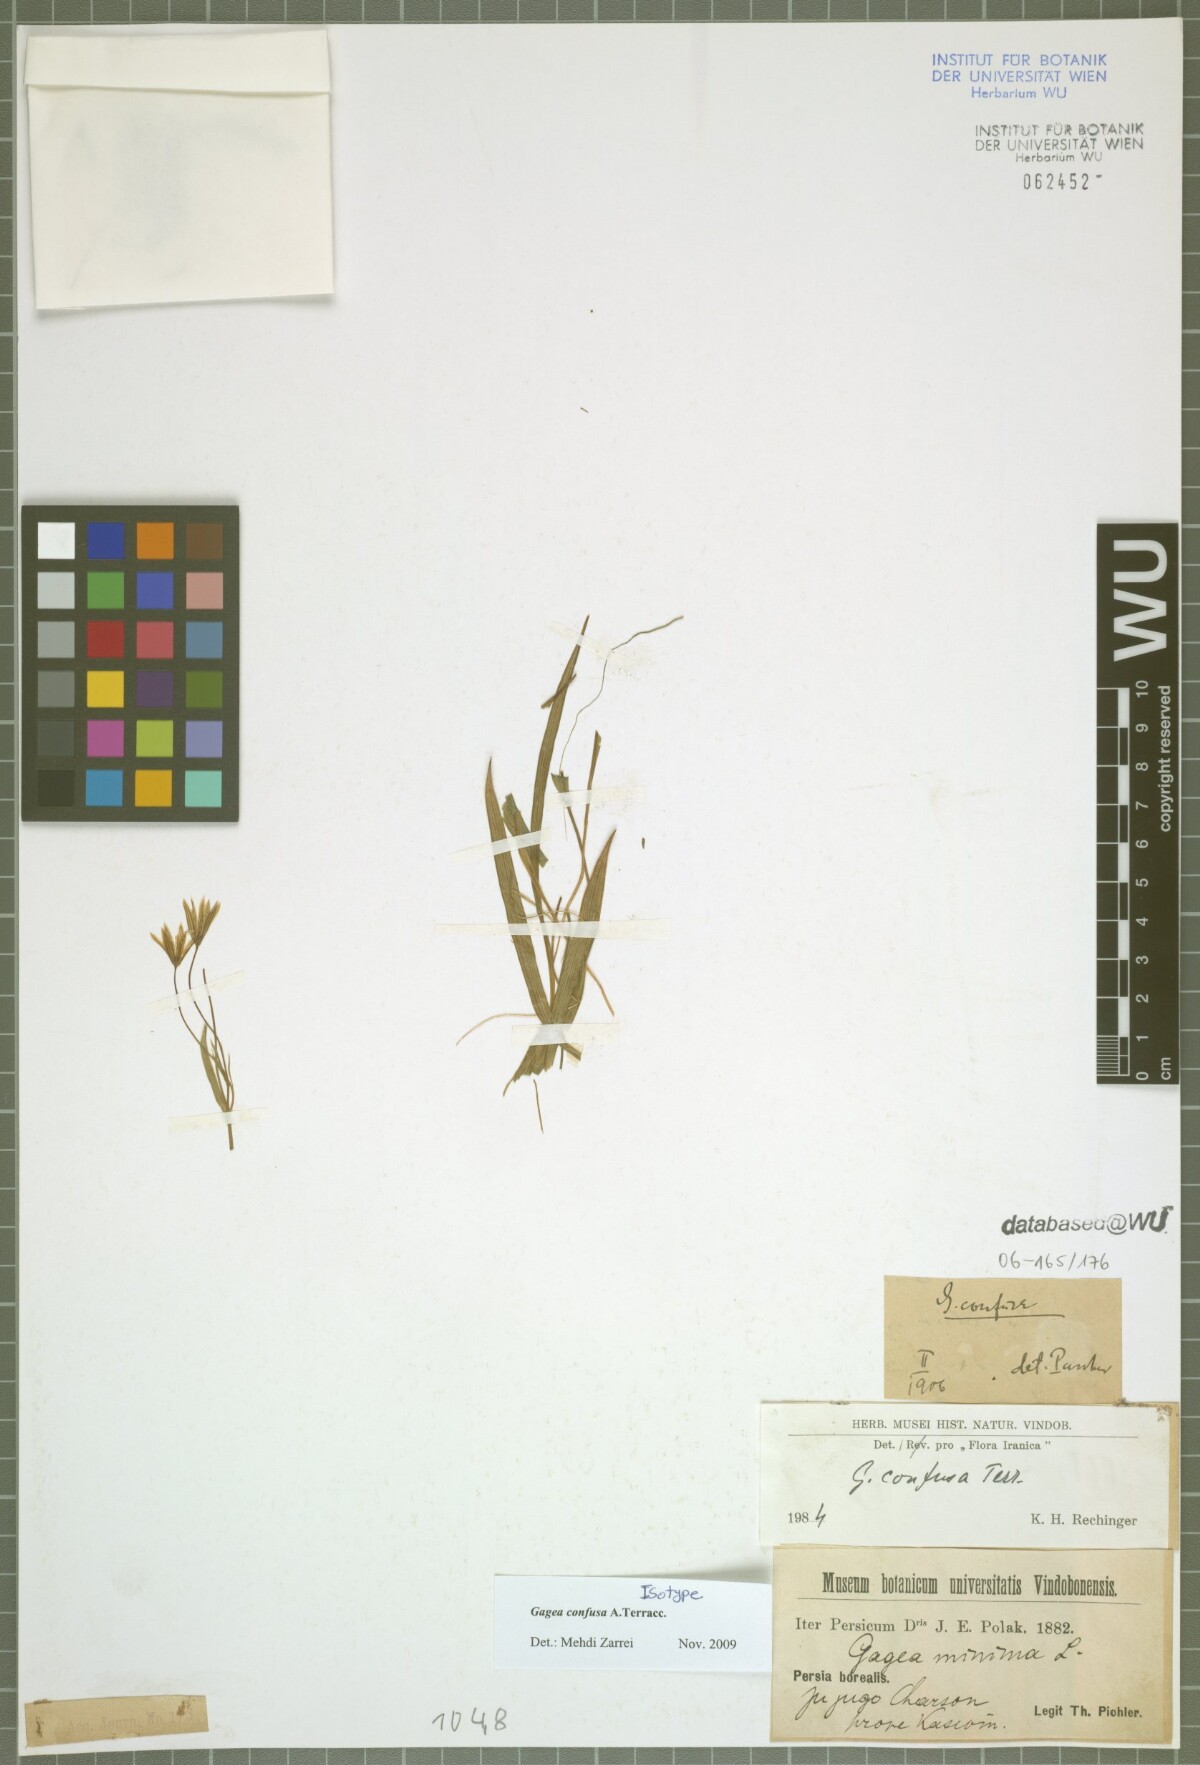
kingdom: Plantae
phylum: Tracheophyta
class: Liliopsida
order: Liliales
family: Liliaceae
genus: Gagea
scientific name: Gagea confusa
